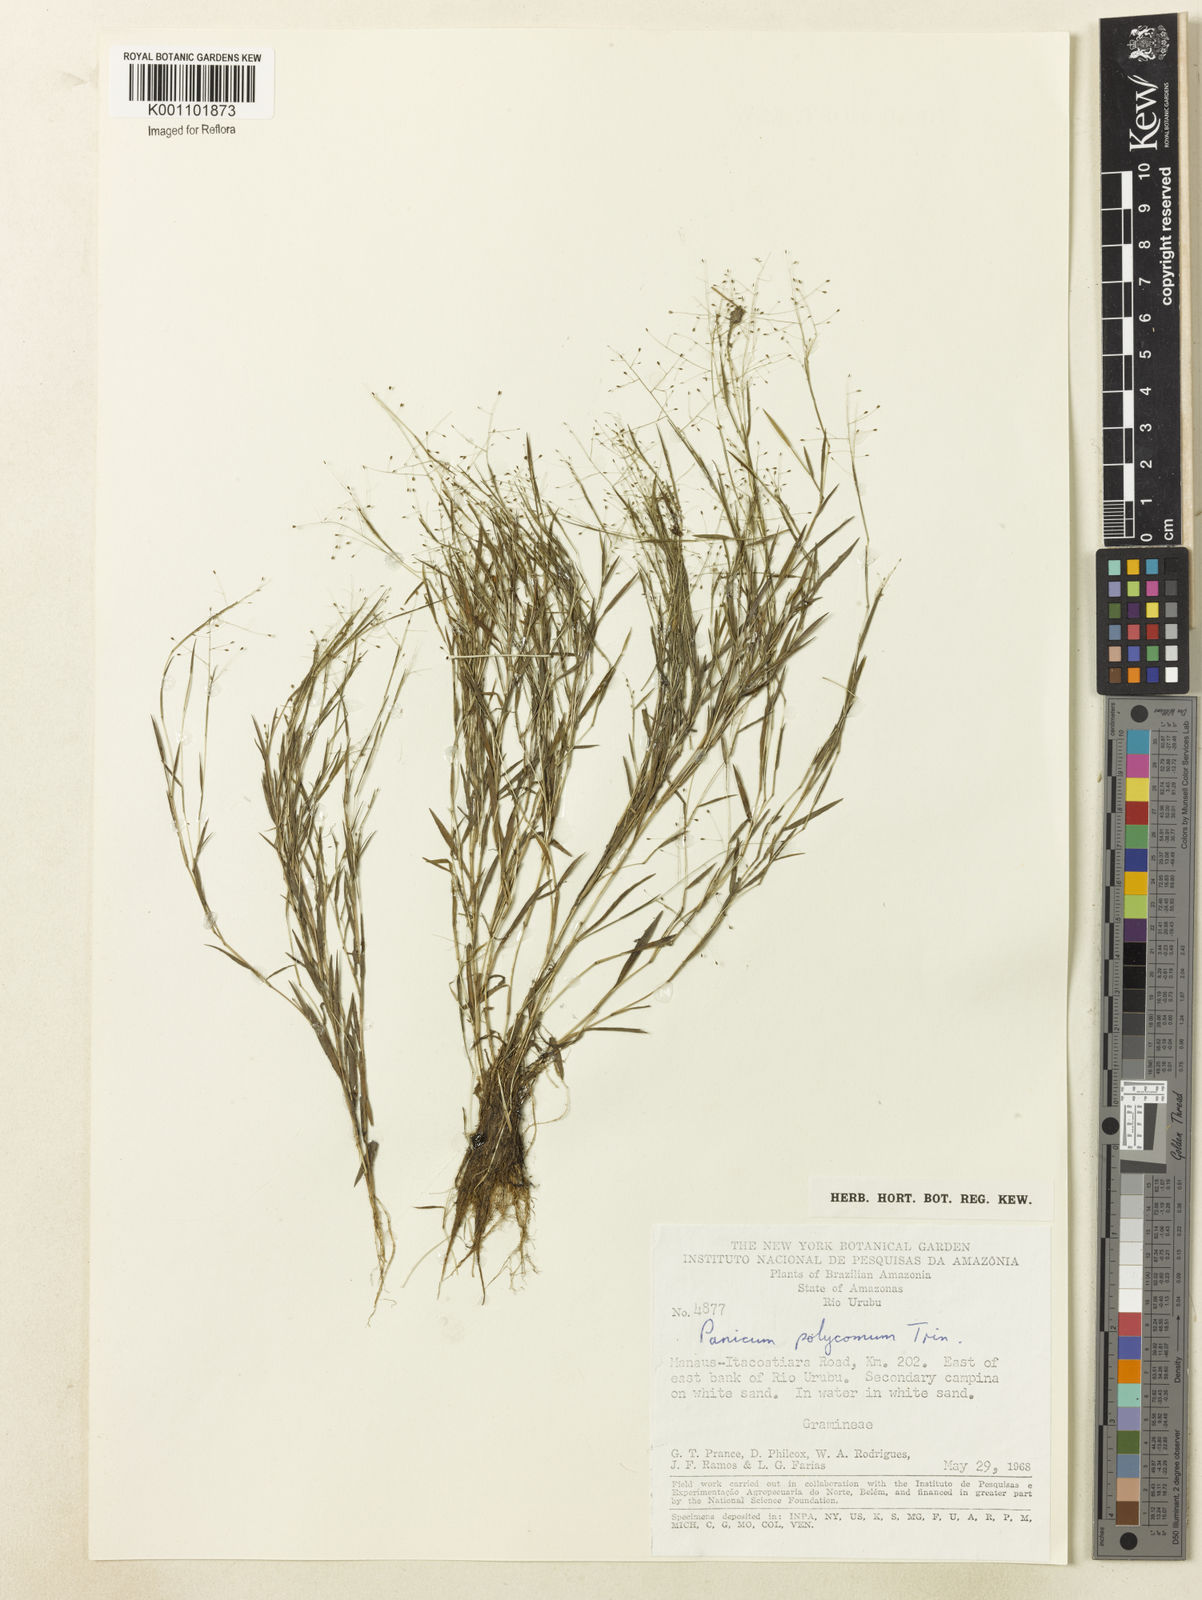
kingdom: Plantae
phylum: Tracheophyta
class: Liliopsida
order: Poales
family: Poaceae
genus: Trichanthecium
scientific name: Trichanthecium polycomum
